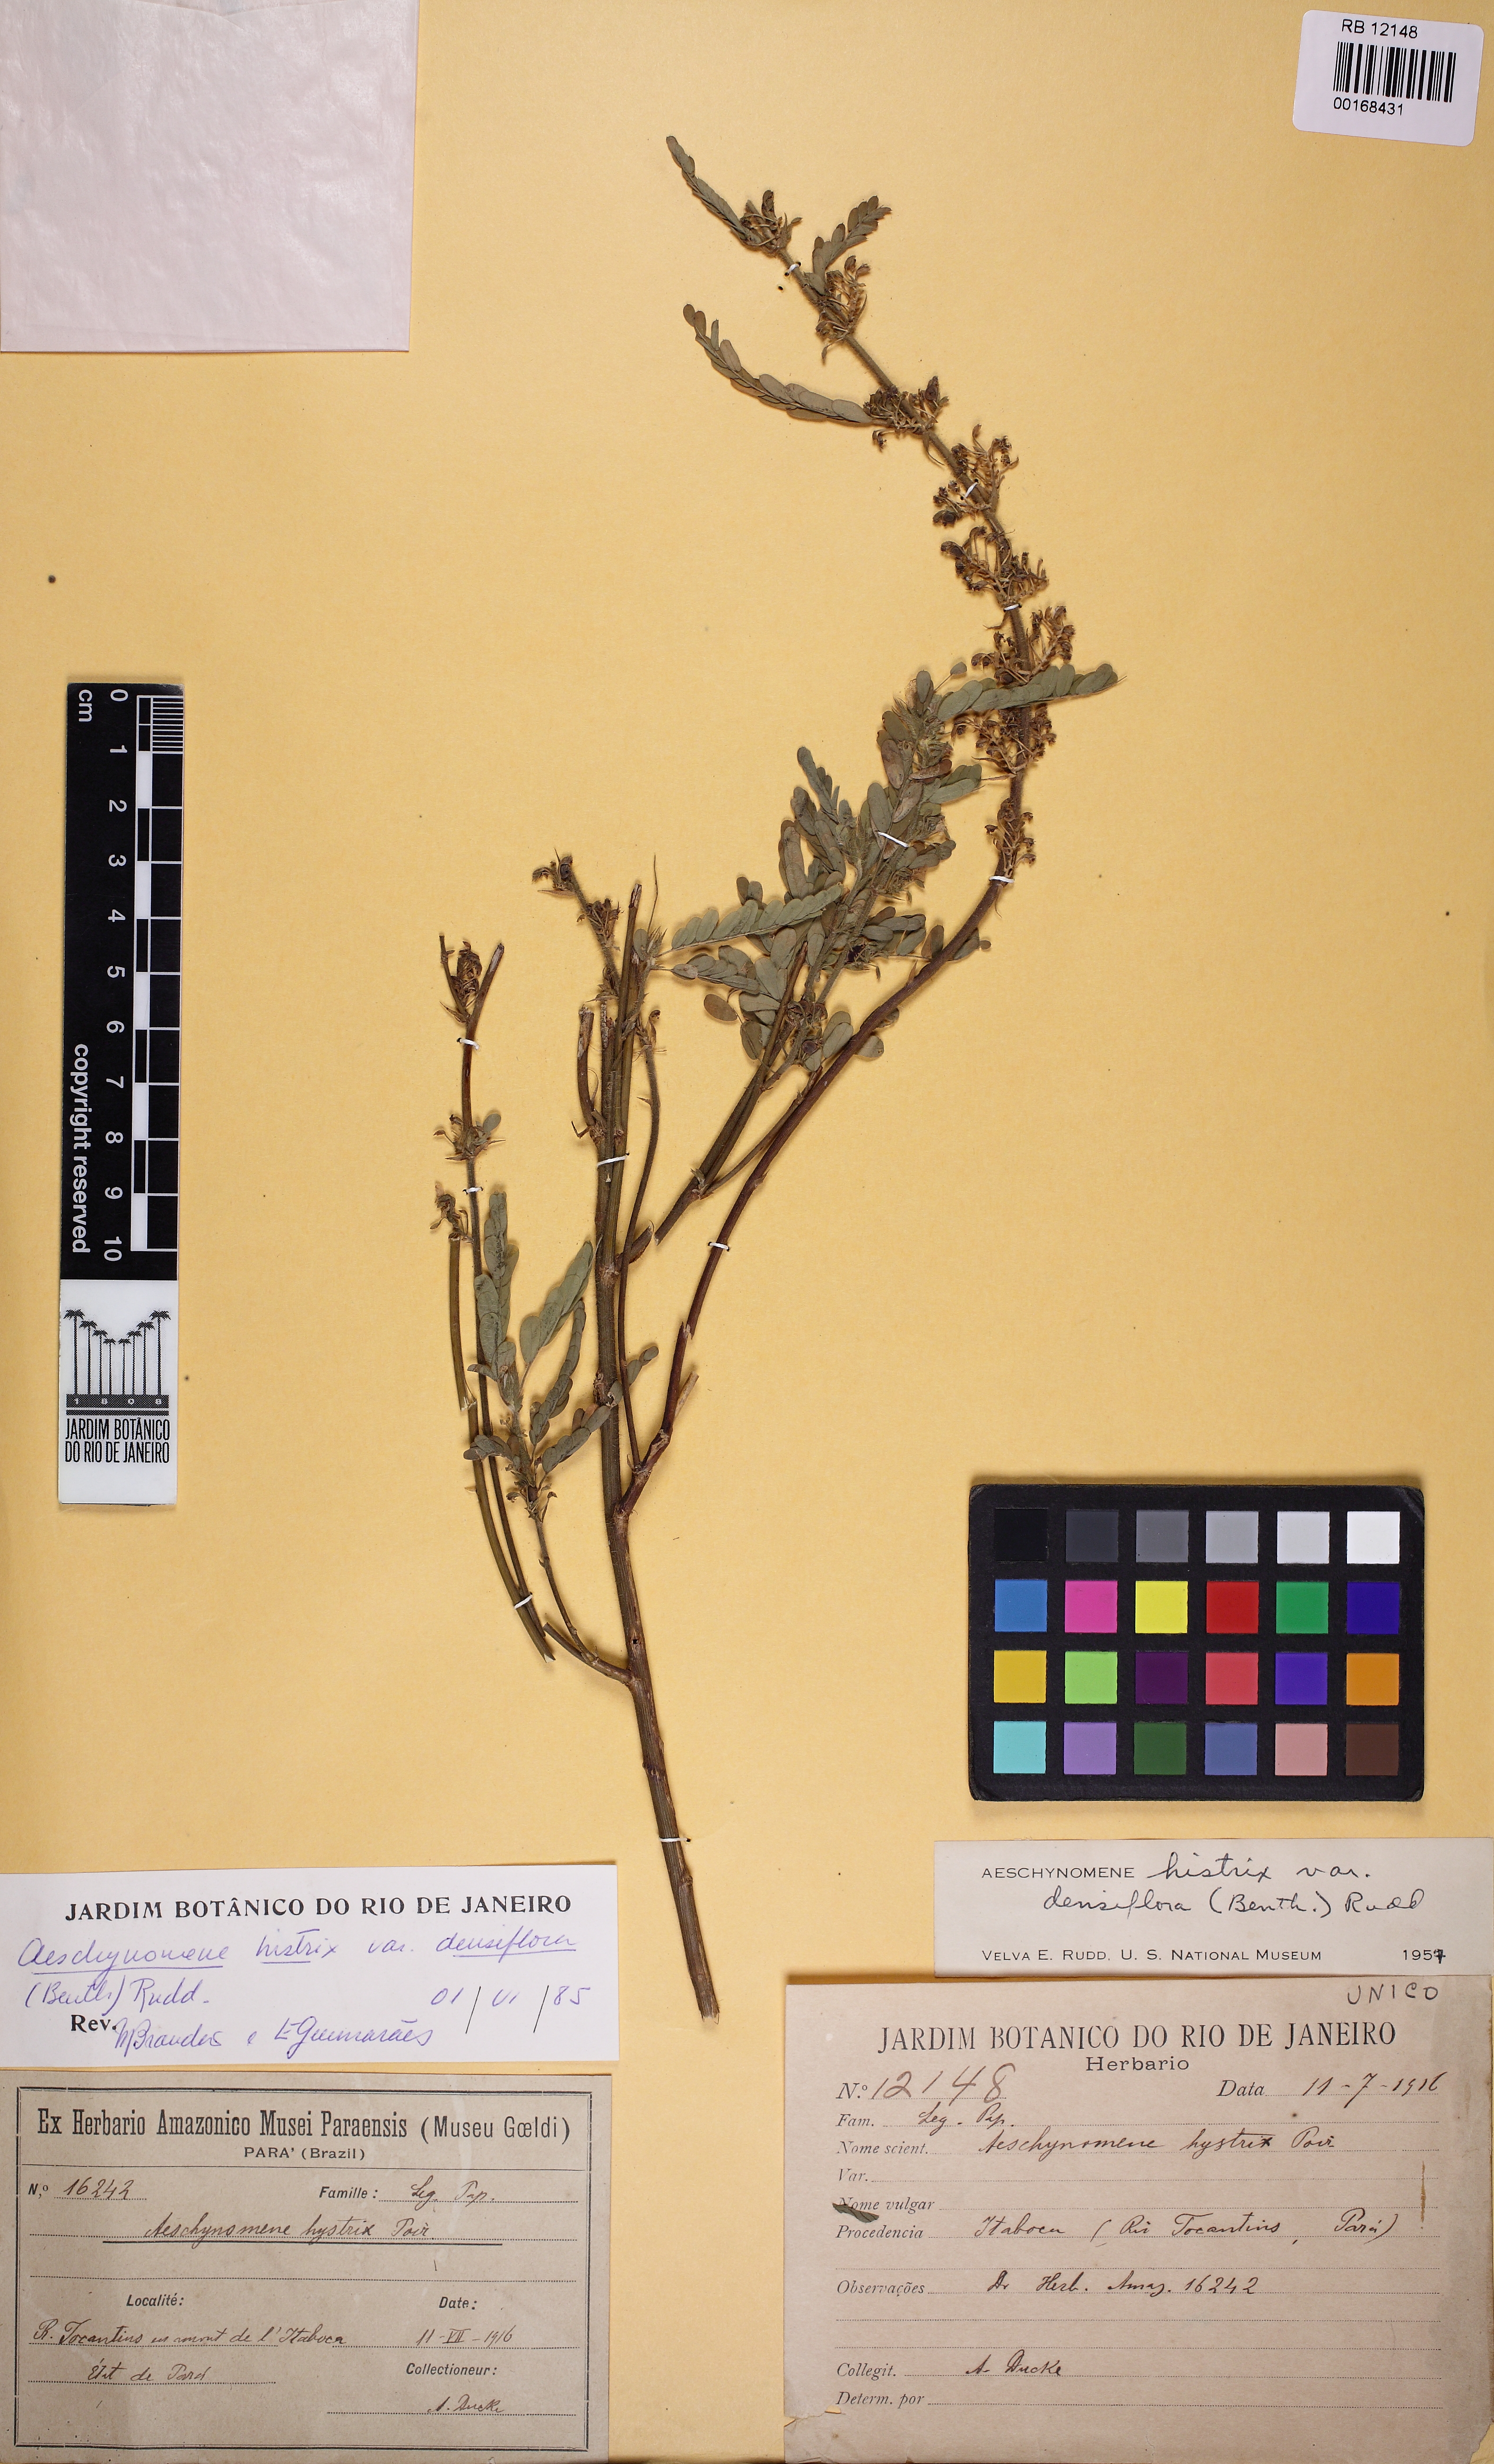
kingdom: Plantae
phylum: Tracheophyta
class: Magnoliopsida
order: Fabales
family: Fabaceae
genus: Ctenodon
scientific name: Ctenodon histrix
